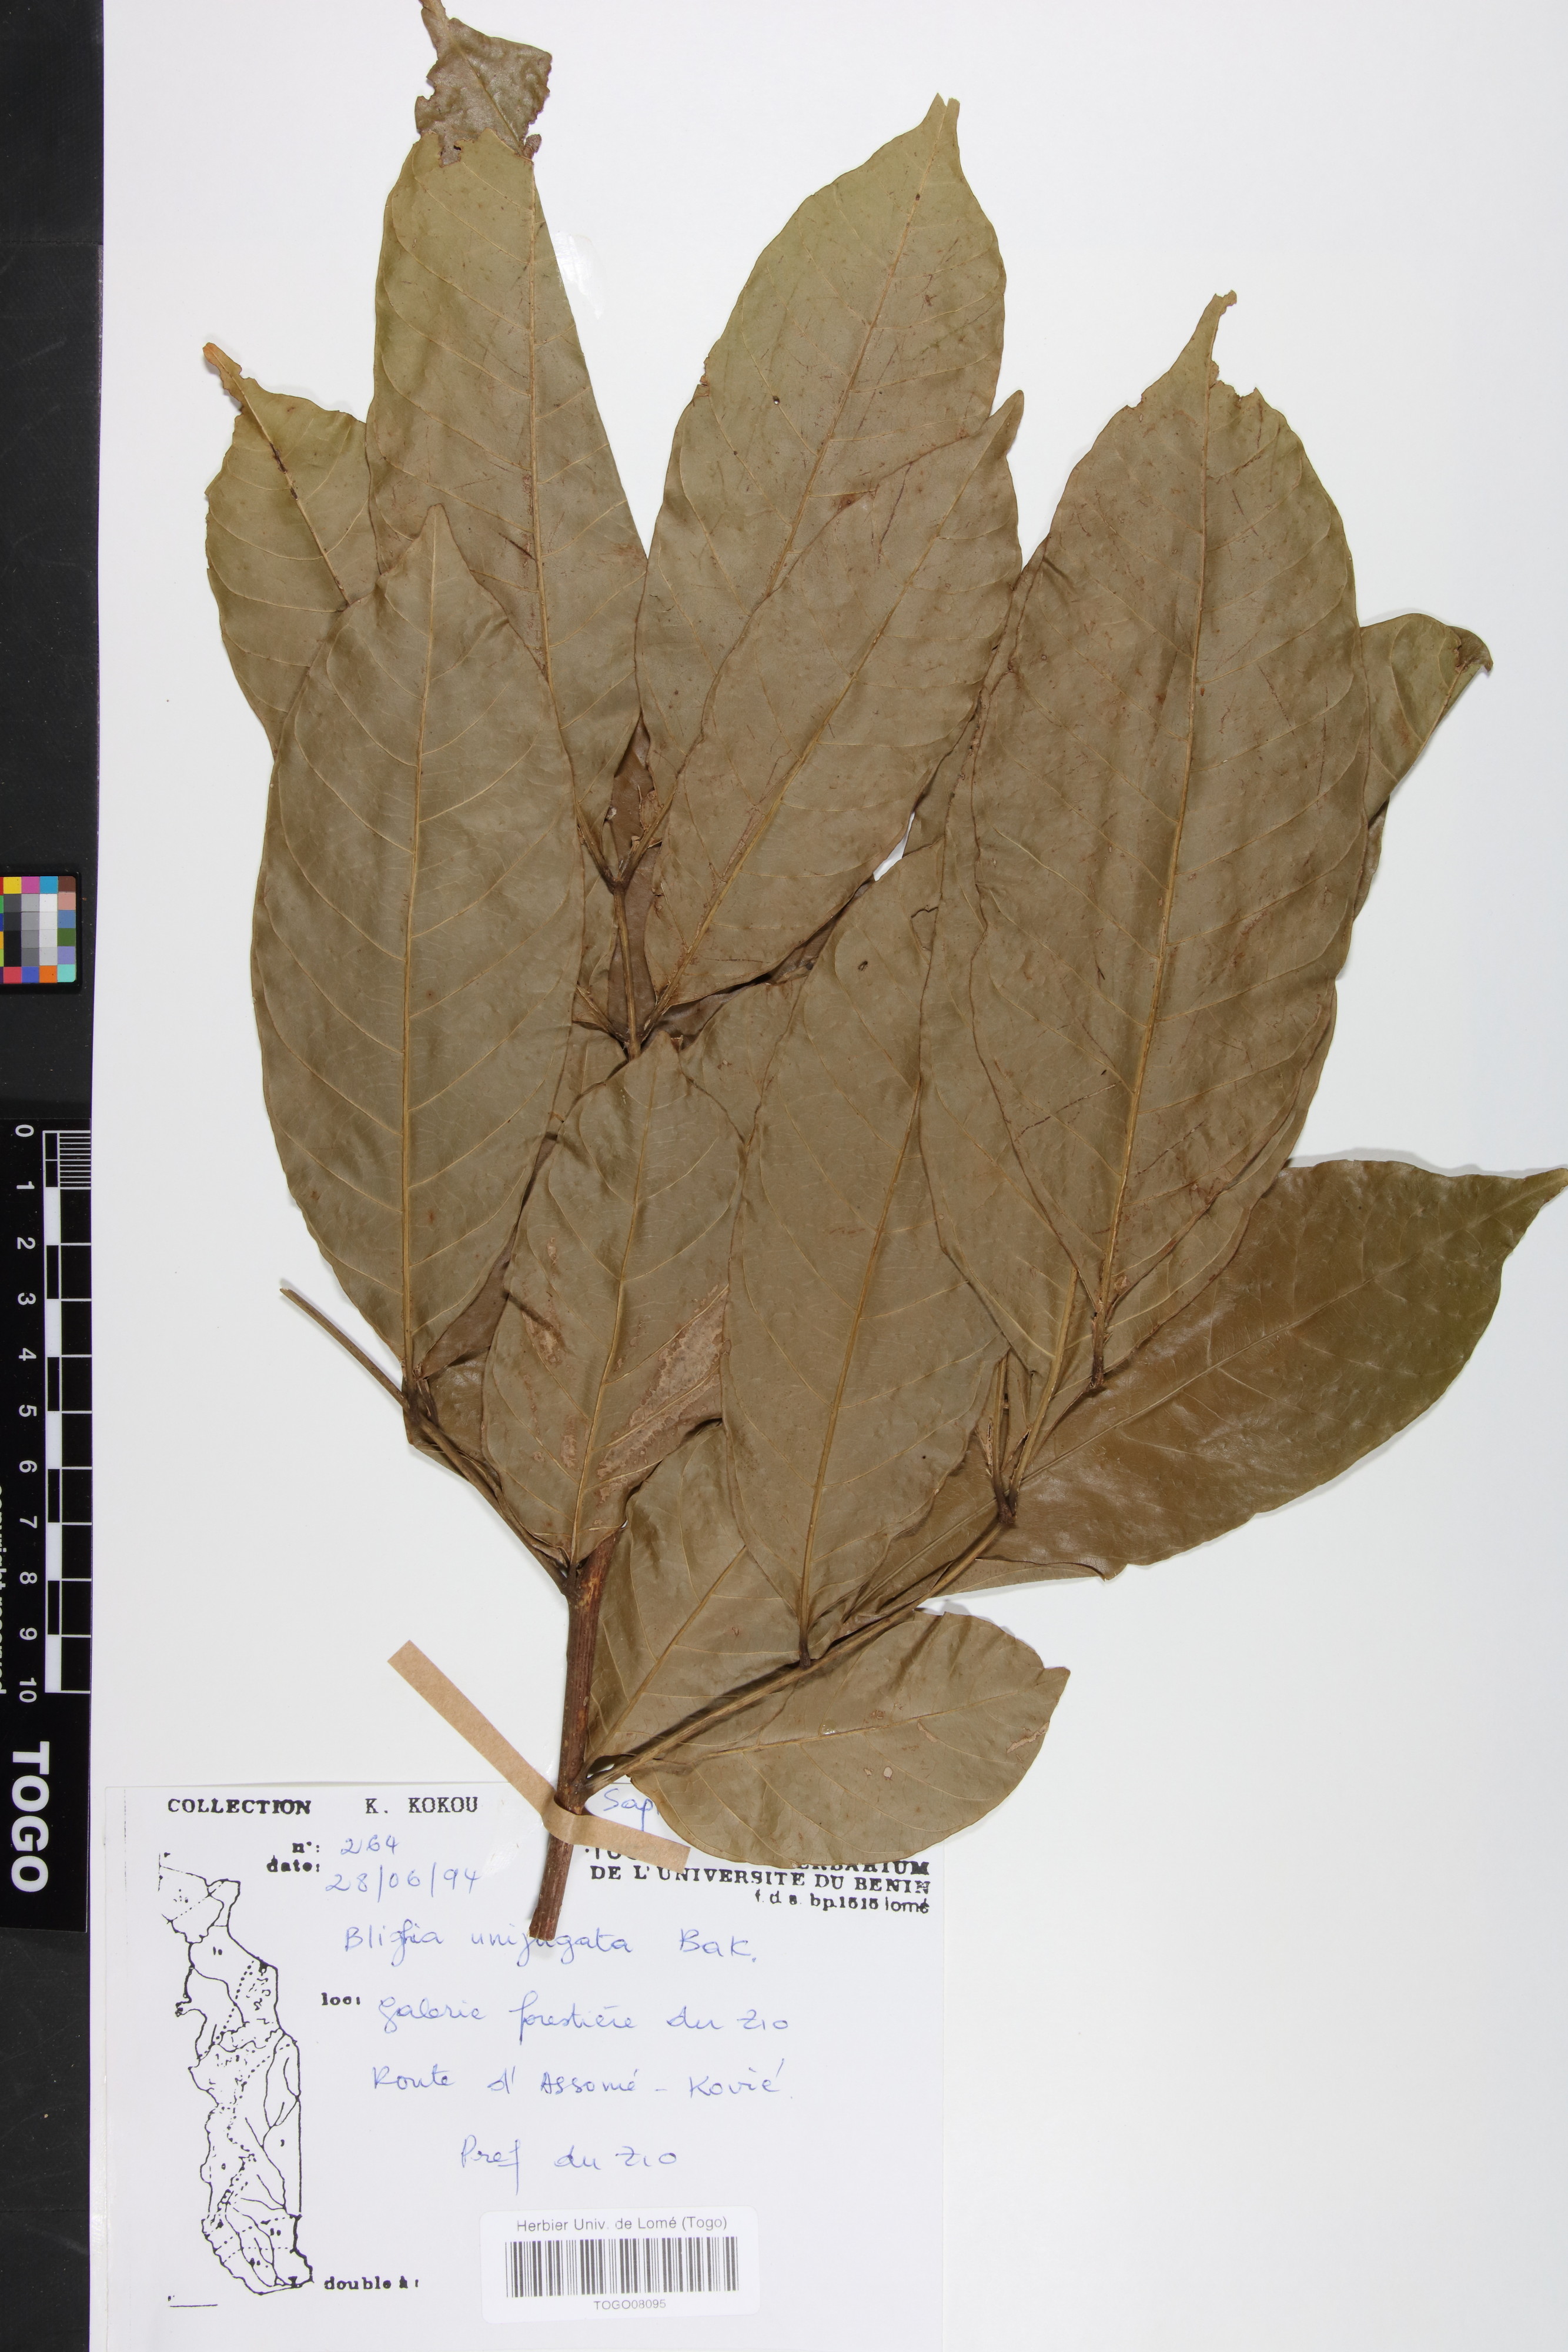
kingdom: Plantae
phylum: Tracheophyta
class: Magnoliopsida
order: Sapindales
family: Sapindaceae
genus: Blighia
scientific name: Blighia unijugata
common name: Triangle tops
